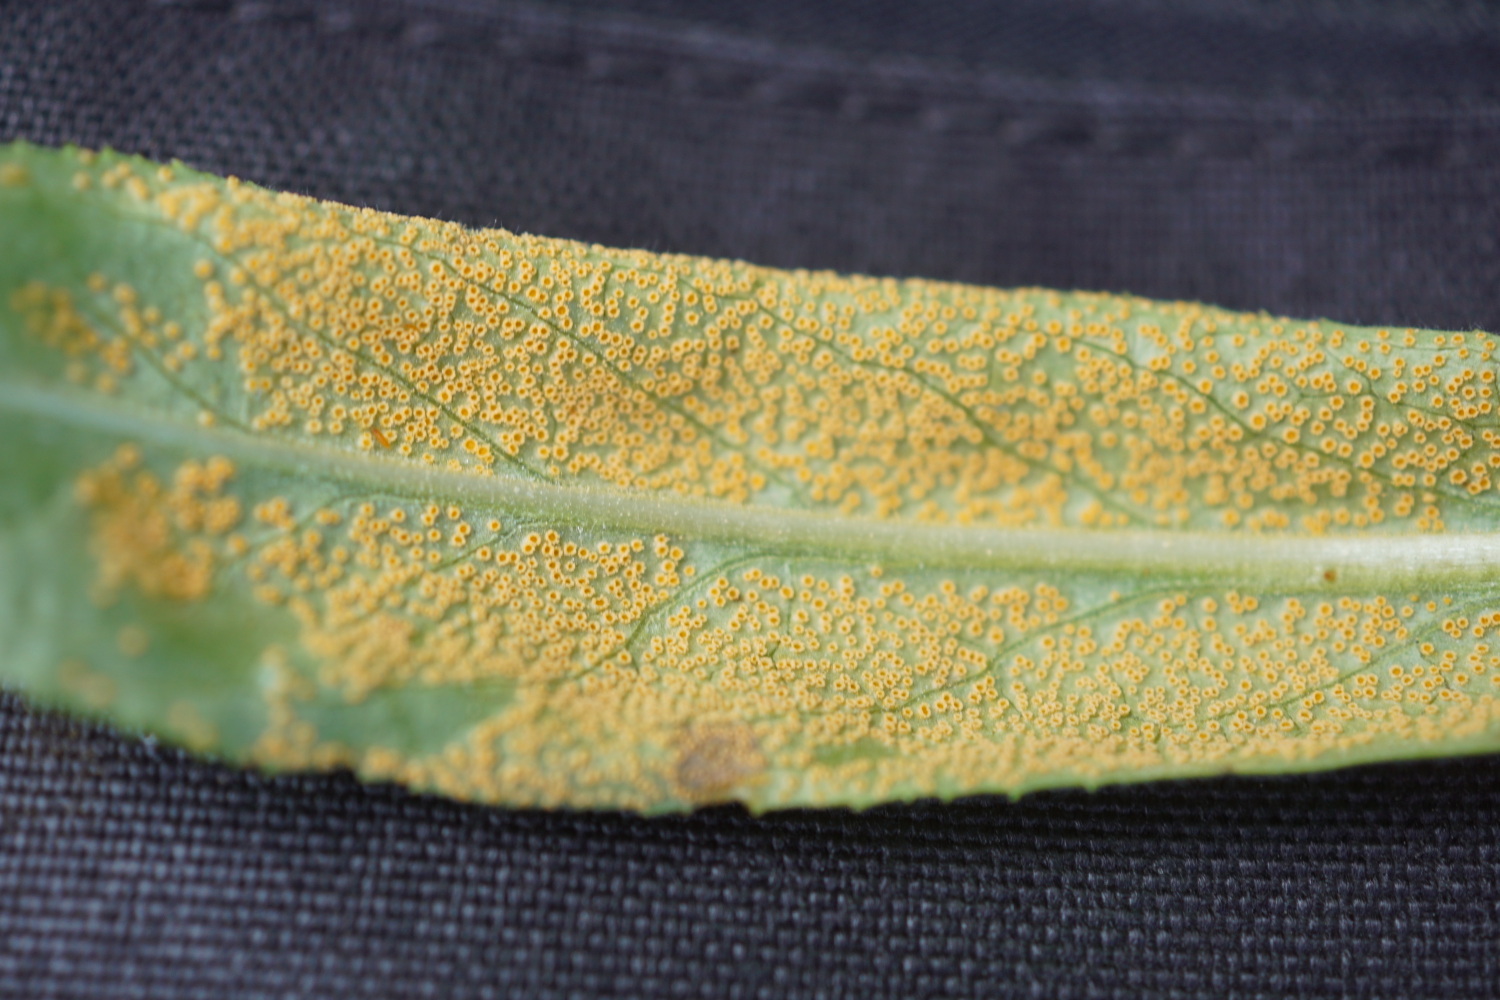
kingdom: Fungi
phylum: Basidiomycota
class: Pucciniomycetes
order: Pucciniales
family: Pucciniaceae
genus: Puccinia
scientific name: Puccinia pulverulenta
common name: dueurt-tvecellerust
